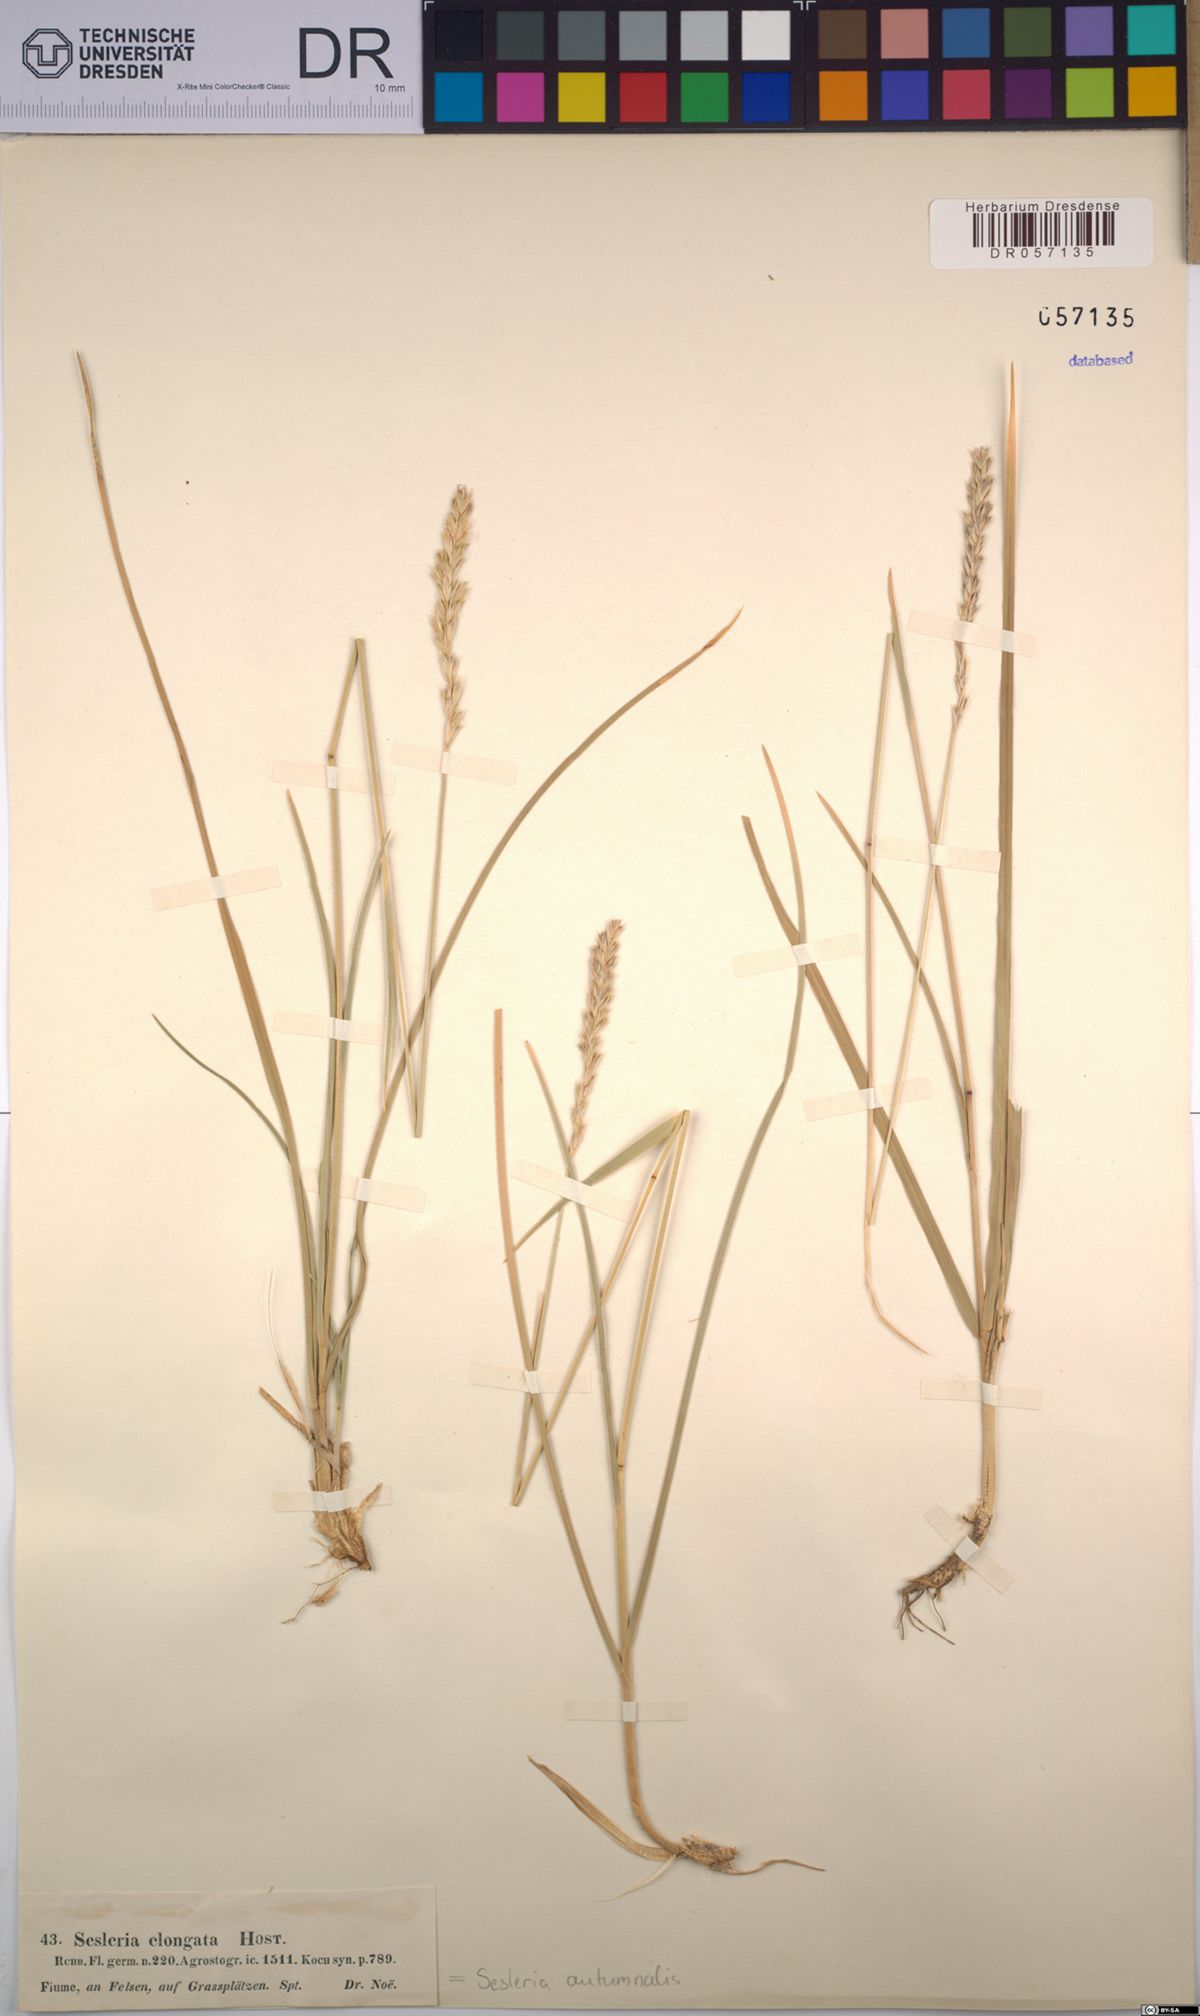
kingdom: Plantae
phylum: Tracheophyta
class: Liliopsida
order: Poales
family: Poaceae
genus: Sesleria
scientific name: Sesleria autumnalis
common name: Autumn moor grass
